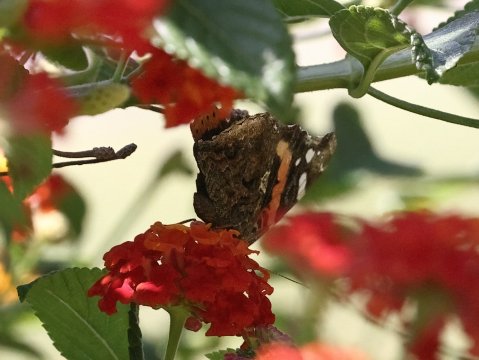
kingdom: Animalia
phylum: Arthropoda
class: Insecta
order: Lepidoptera
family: Nymphalidae
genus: Vanessa
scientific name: Vanessa atalanta
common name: Red Admiral
